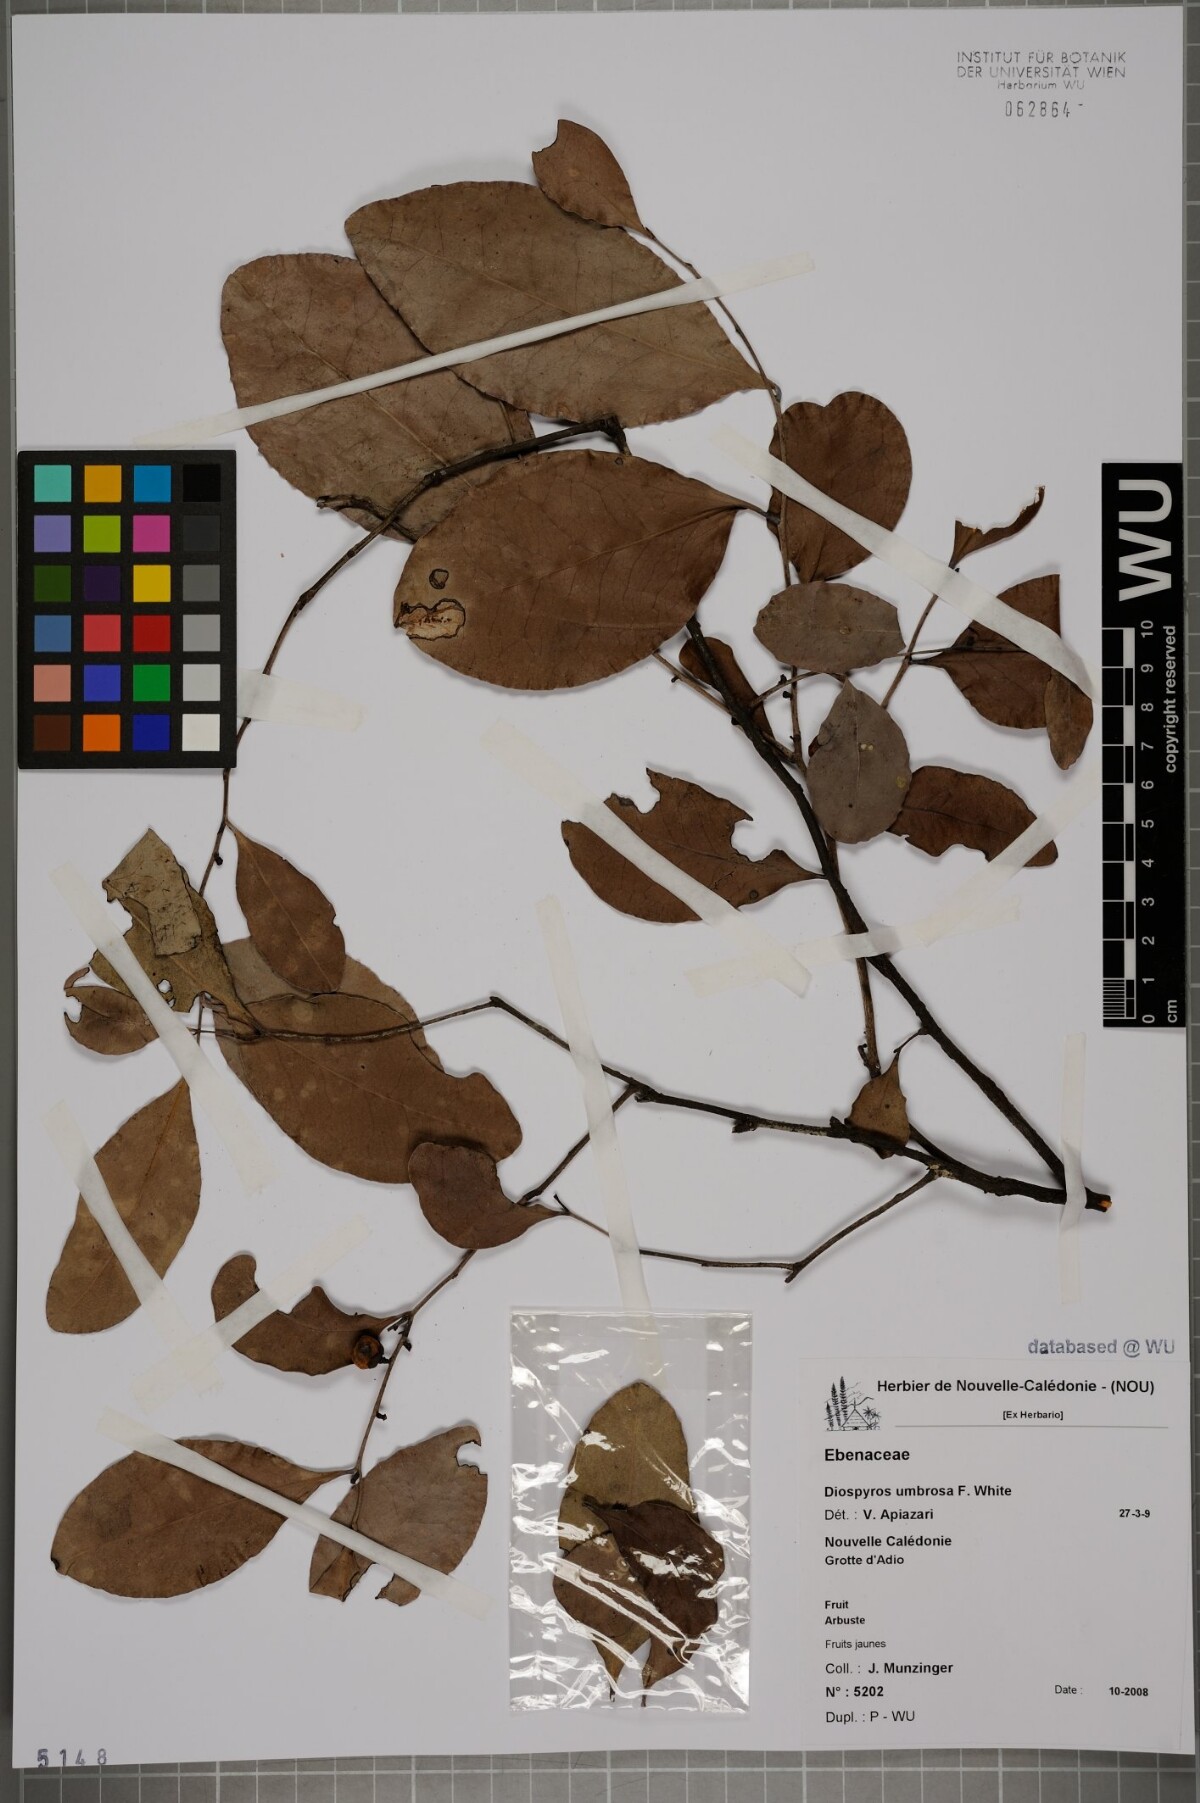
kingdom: Plantae
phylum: Tracheophyta
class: Magnoliopsida
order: Ericales
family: Ebenaceae
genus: Diospyros
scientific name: Diospyros umbrosa
